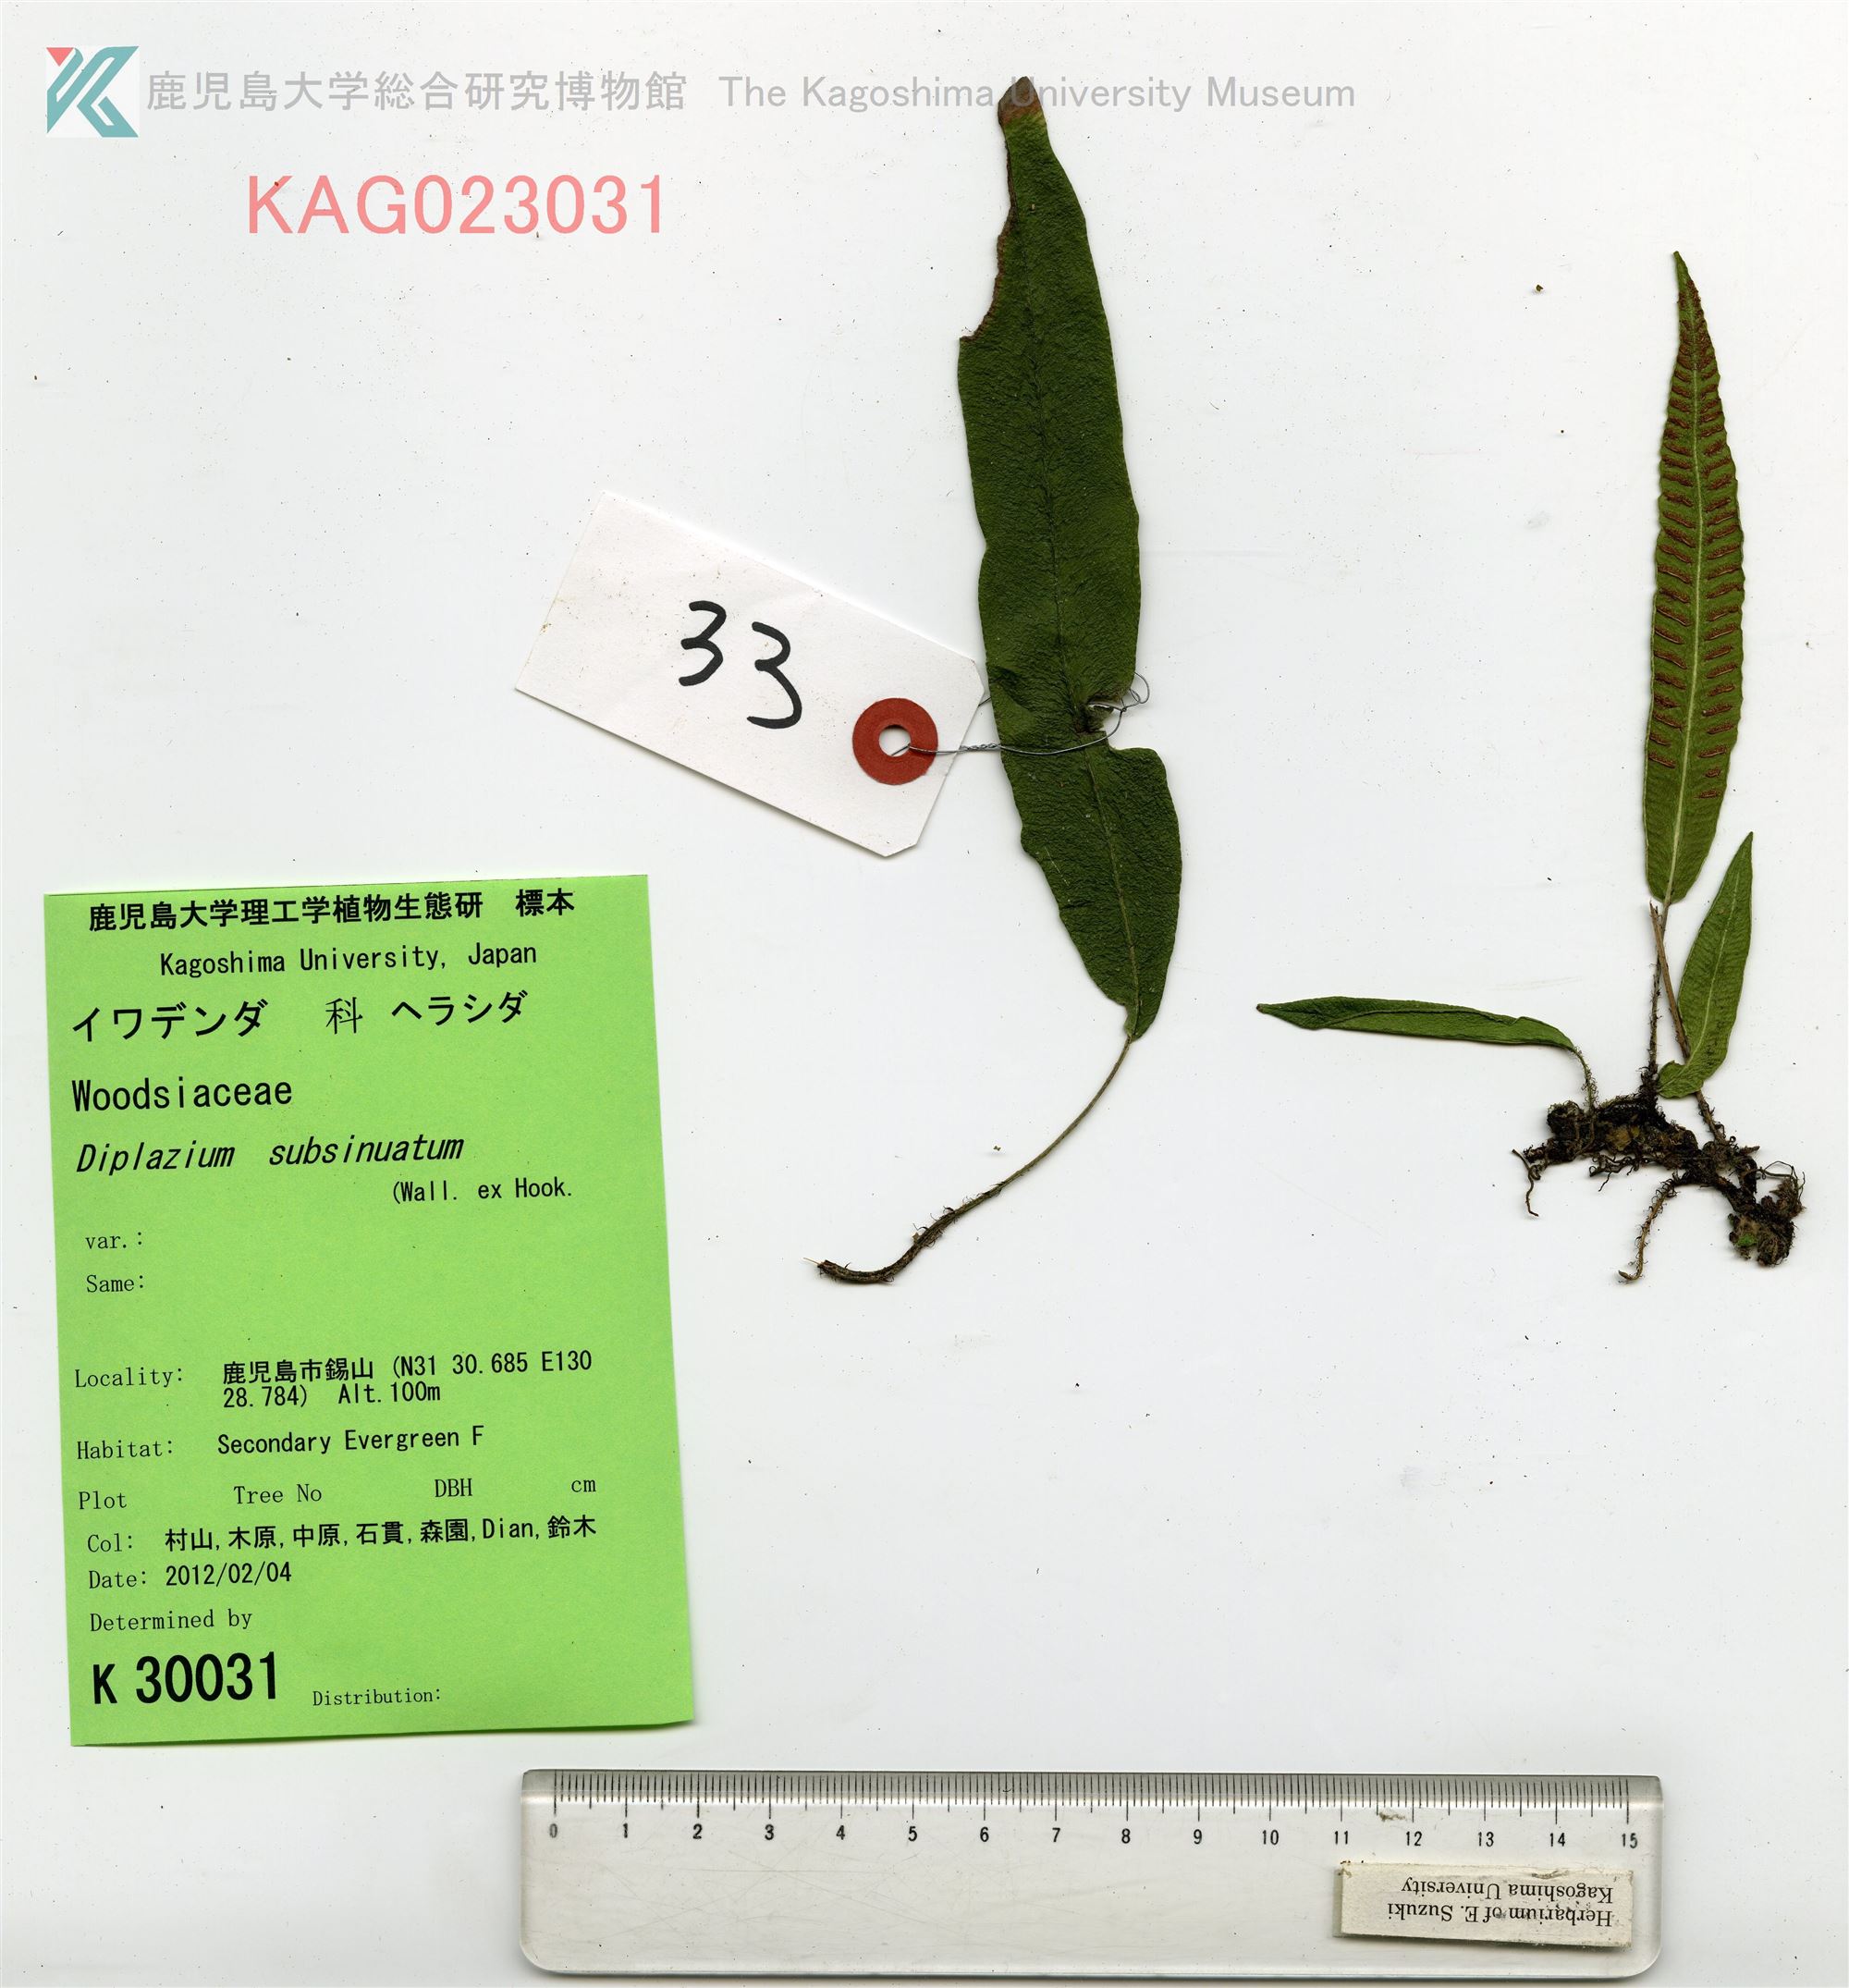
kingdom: Plantae
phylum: Tracheophyta
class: Polypodiopsida
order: Polypodiales
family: Athyriaceae
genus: Deparia
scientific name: Deparia lancea
